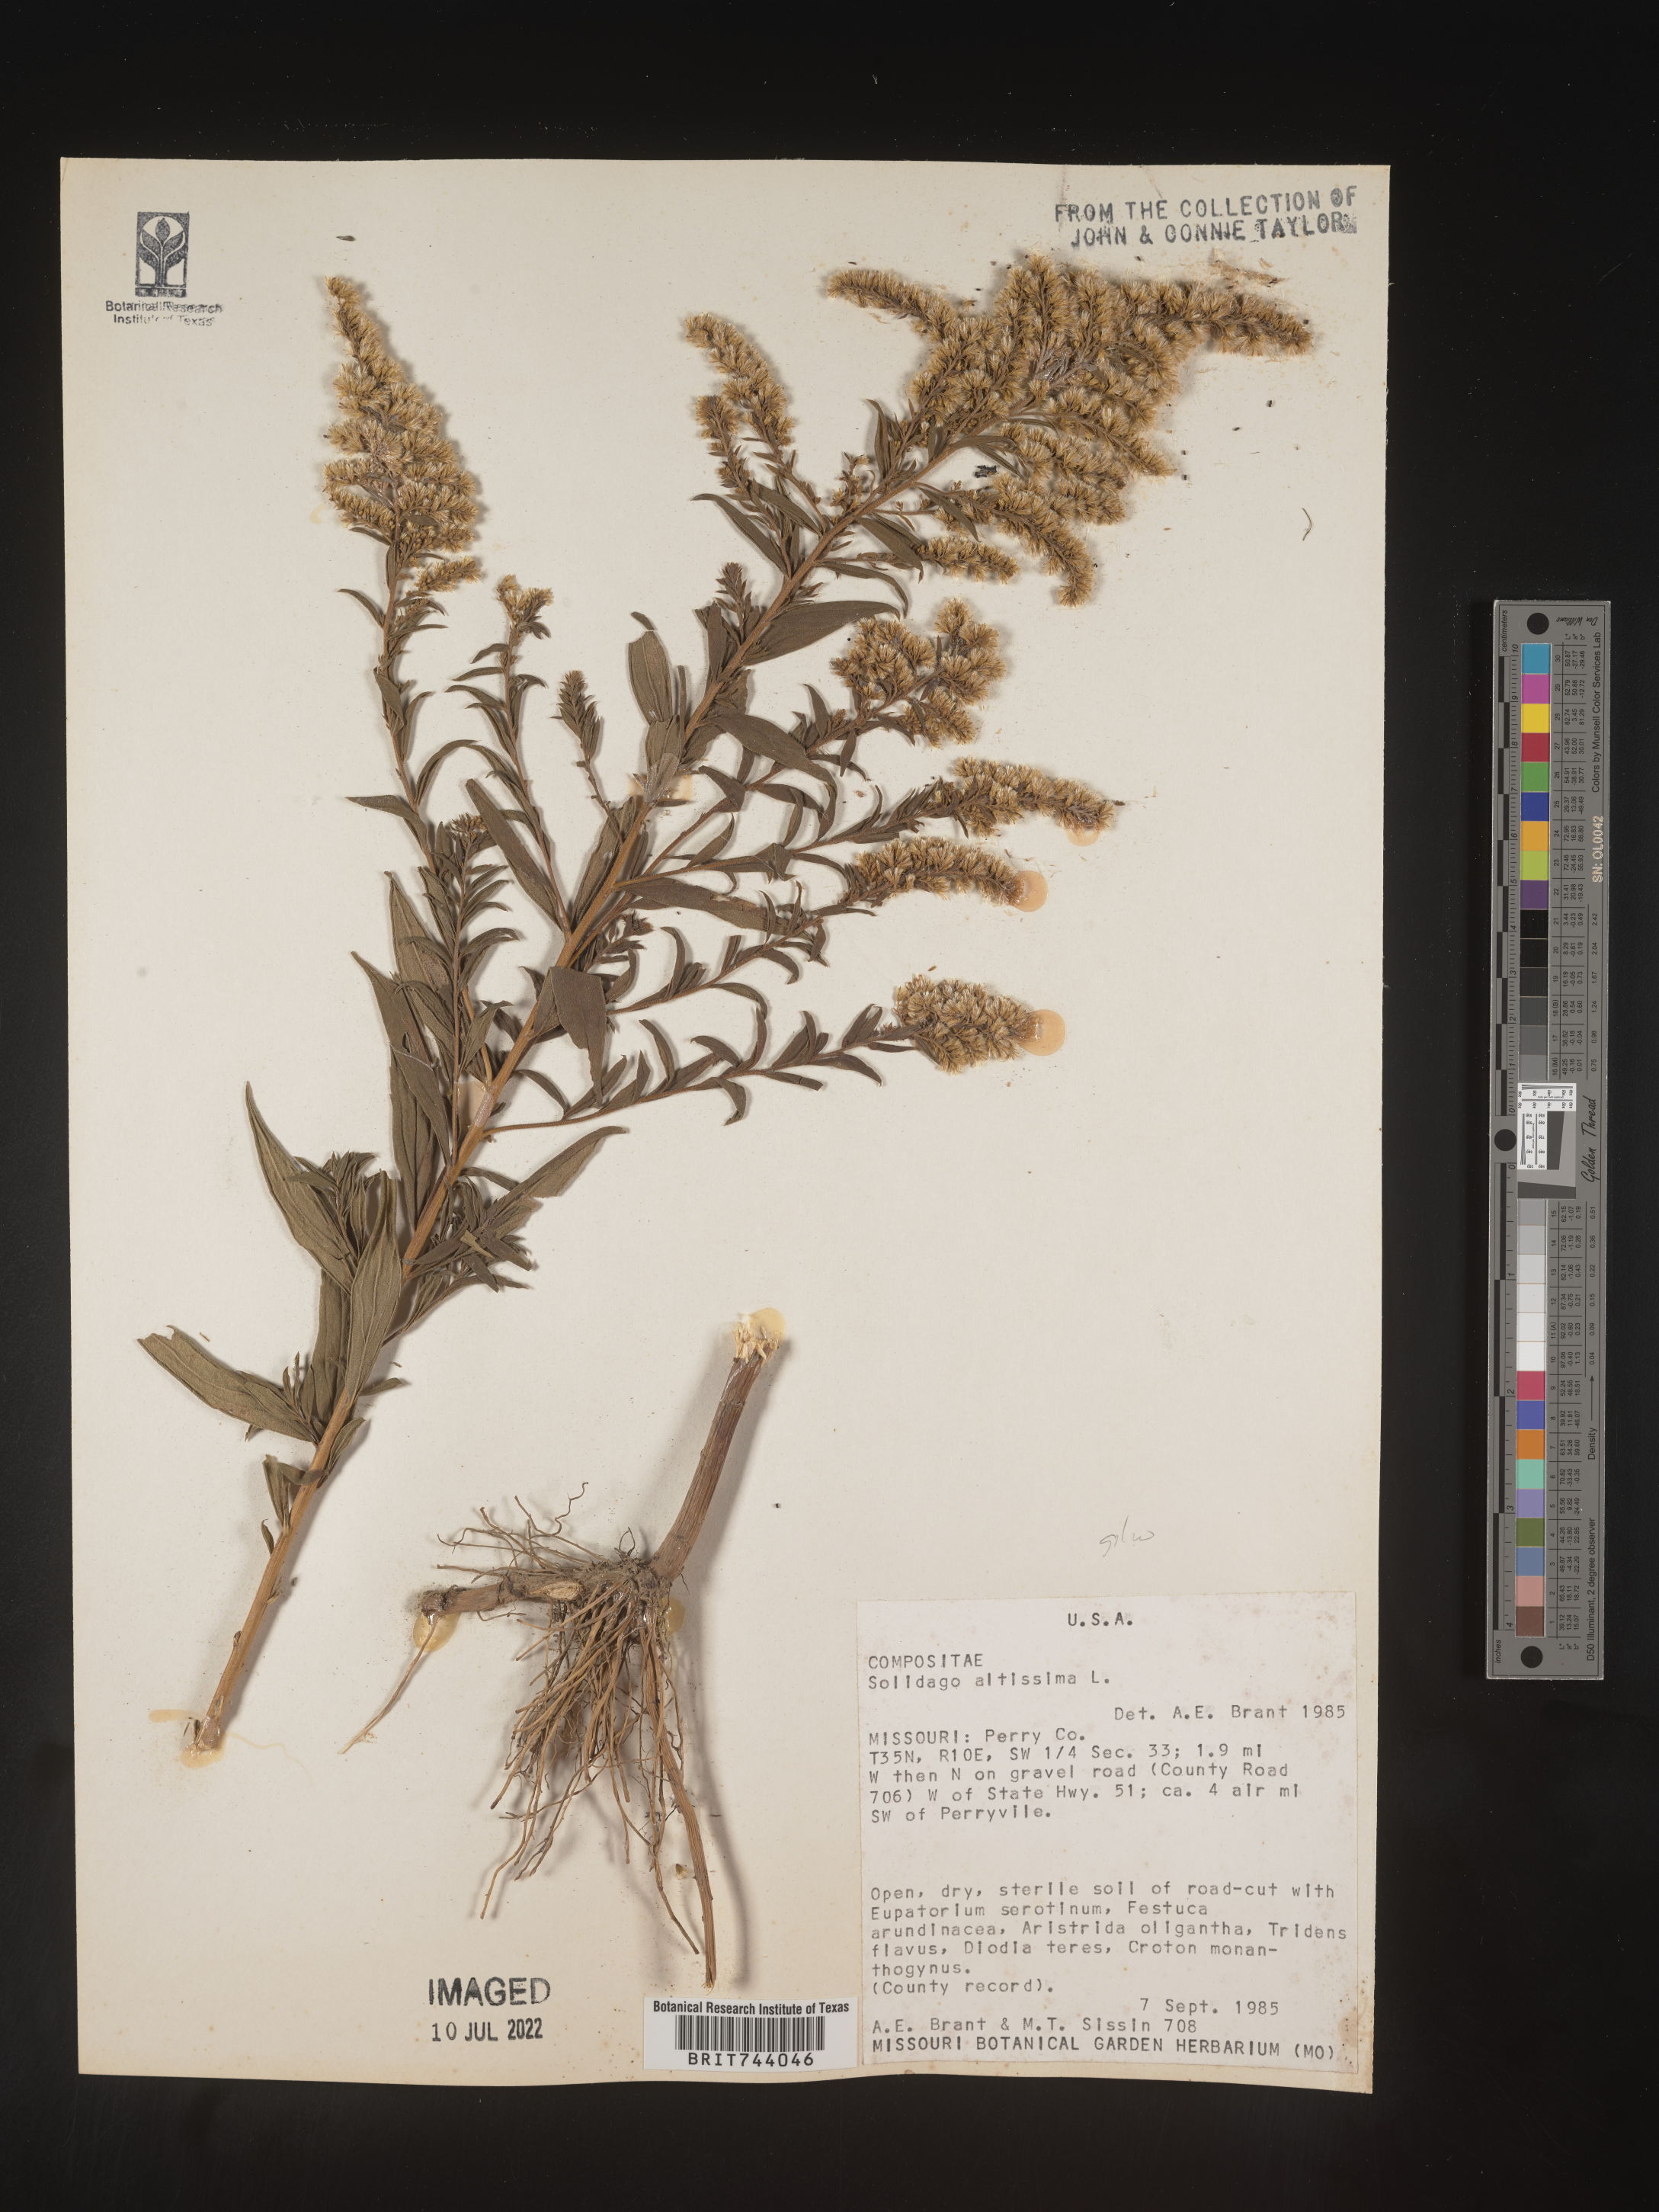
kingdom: Plantae
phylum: Tracheophyta
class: Magnoliopsida
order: Asterales
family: Asteraceae
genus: Solidago
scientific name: Solidago altissima
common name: Late goldenrod
